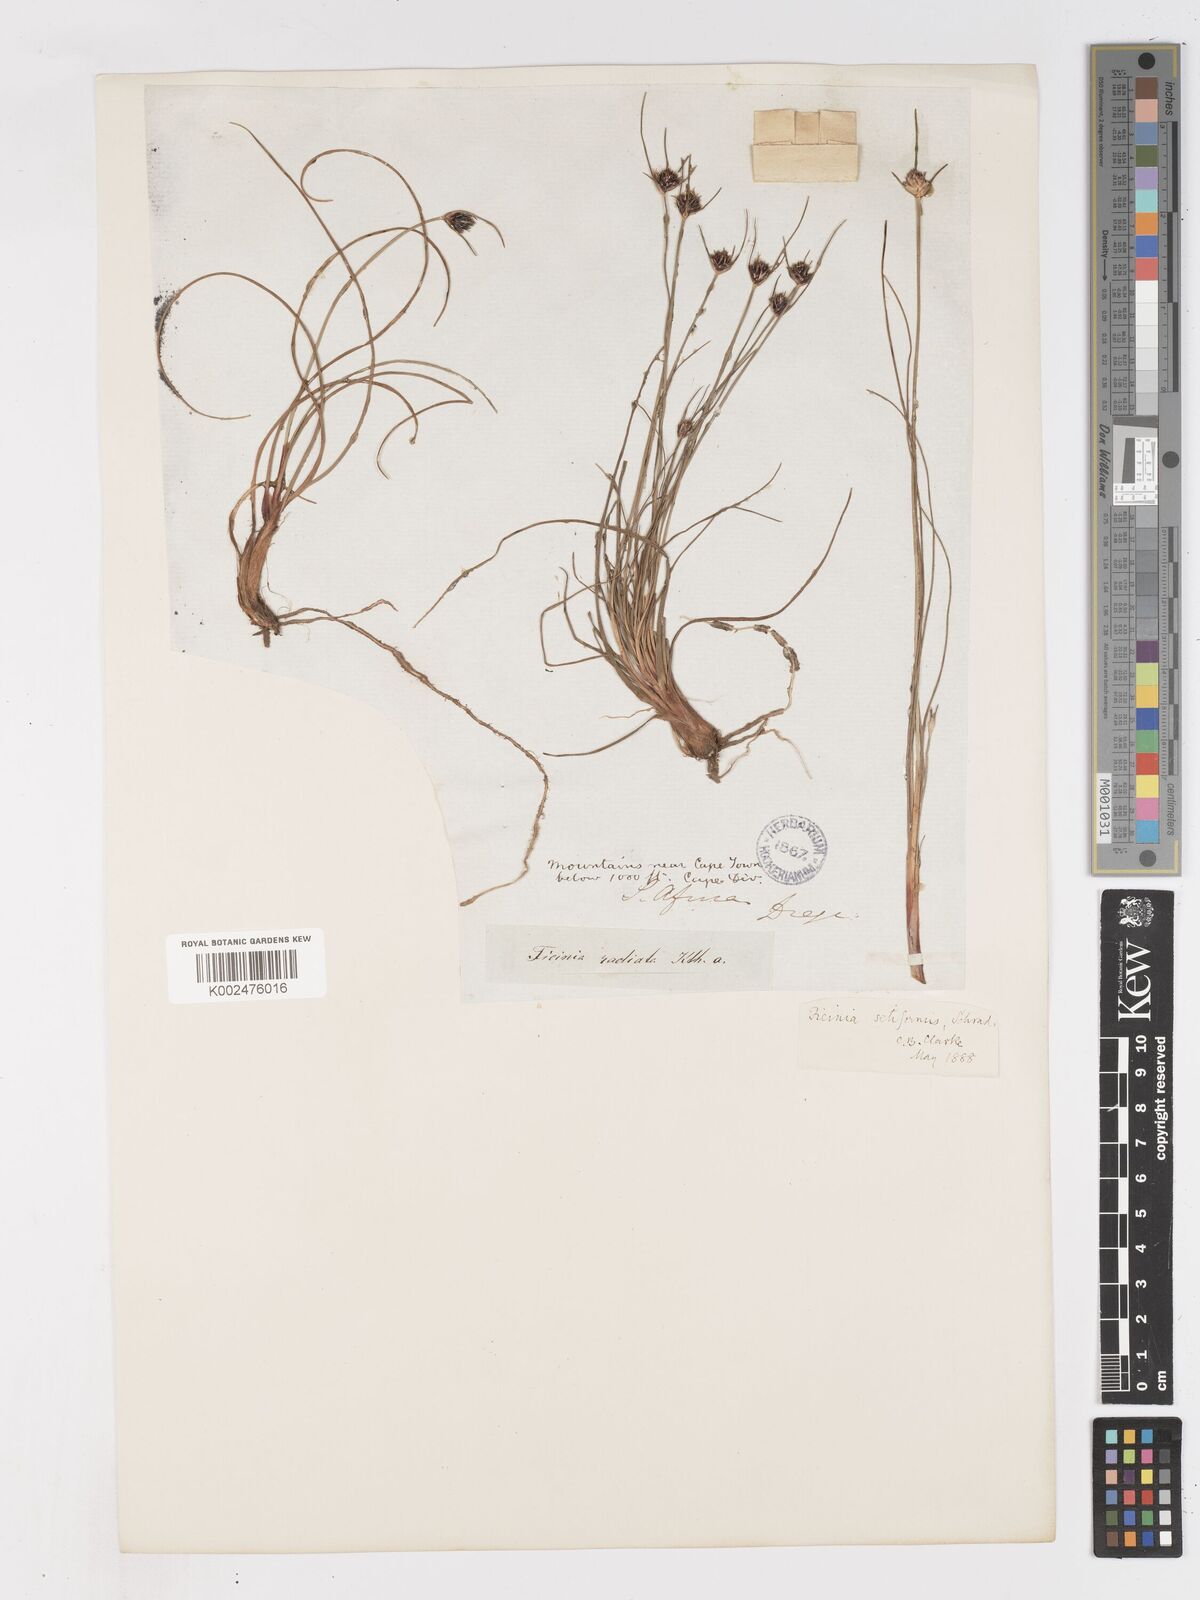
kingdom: Plantae
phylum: Tracheophyta
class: Liliopsida
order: Poales
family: Cyperaceae
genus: Ficinia
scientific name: Ficinia indica
